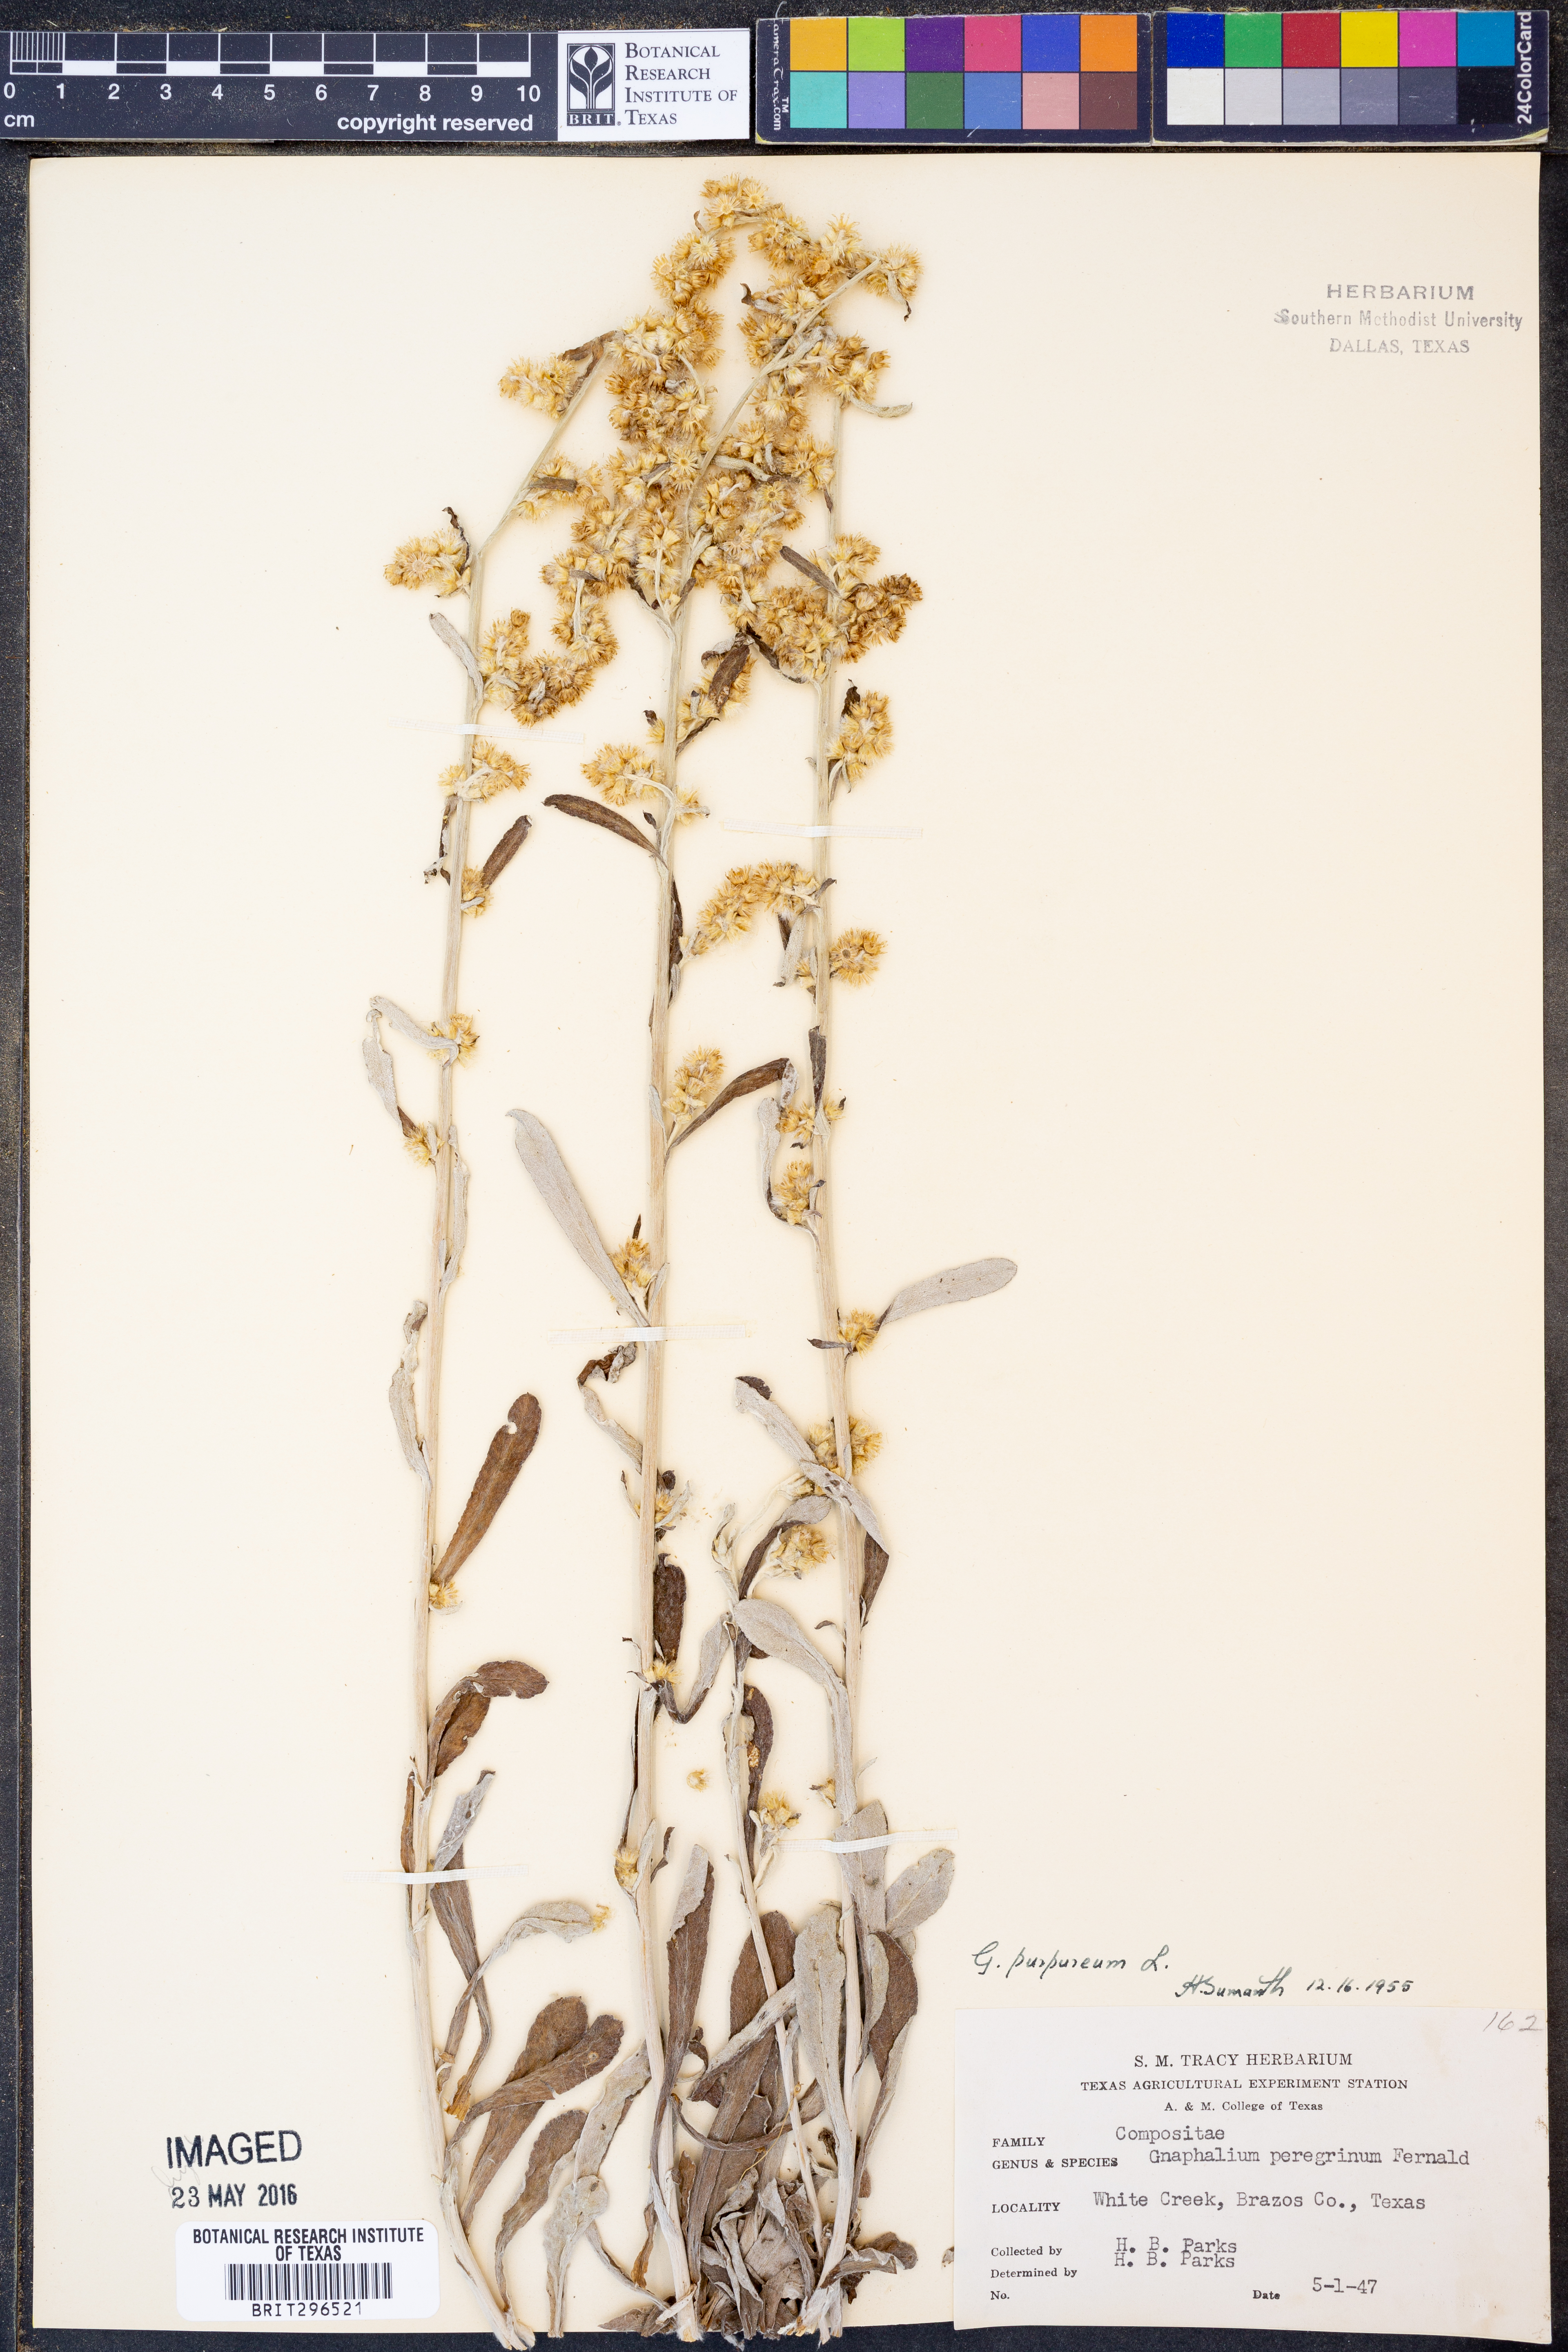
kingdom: Plantae
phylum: Tracheophyta
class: Magnoliopsida
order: Asterales
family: Asteraceae
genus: Gamochaeta
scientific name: Gamochaeta purpurea
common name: Purple cudweed
